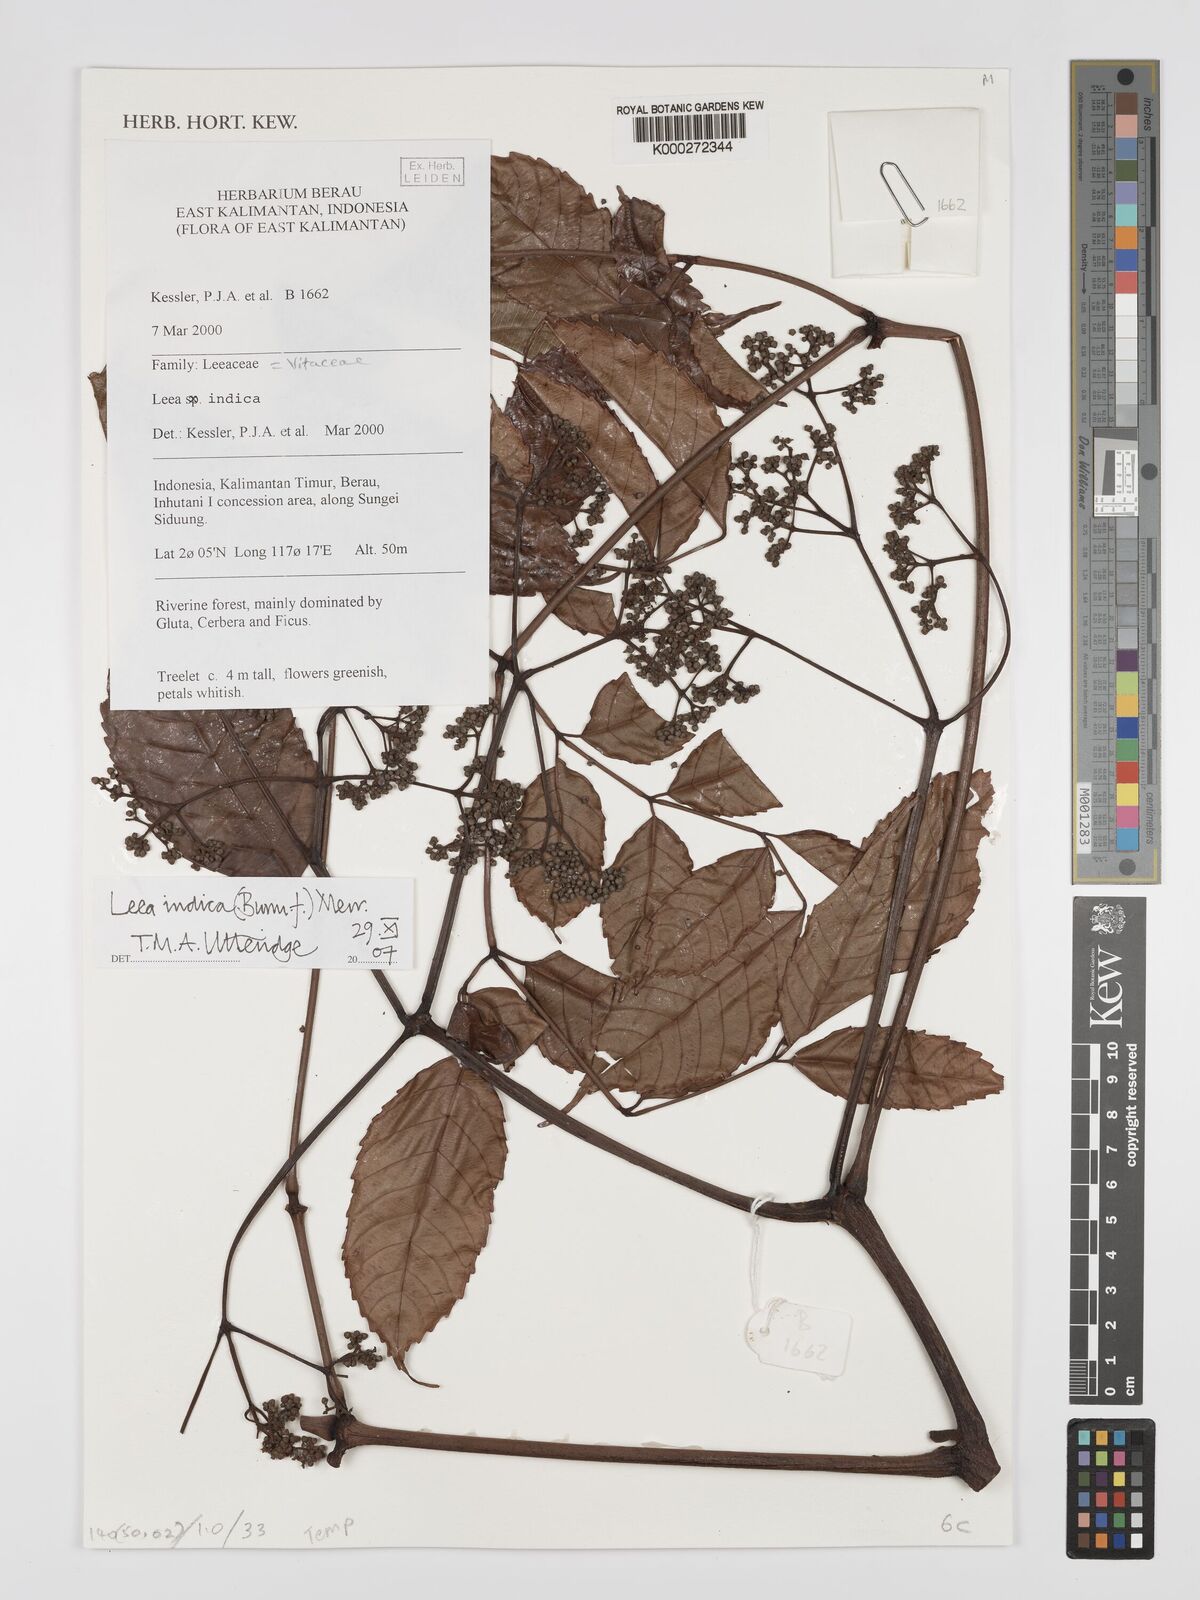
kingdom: Plantae
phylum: Tracheophyta
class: Magnoliopsida
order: Vitales
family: Vitaceae
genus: Leea
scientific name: Leea indica
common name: Bandicoot-berry
